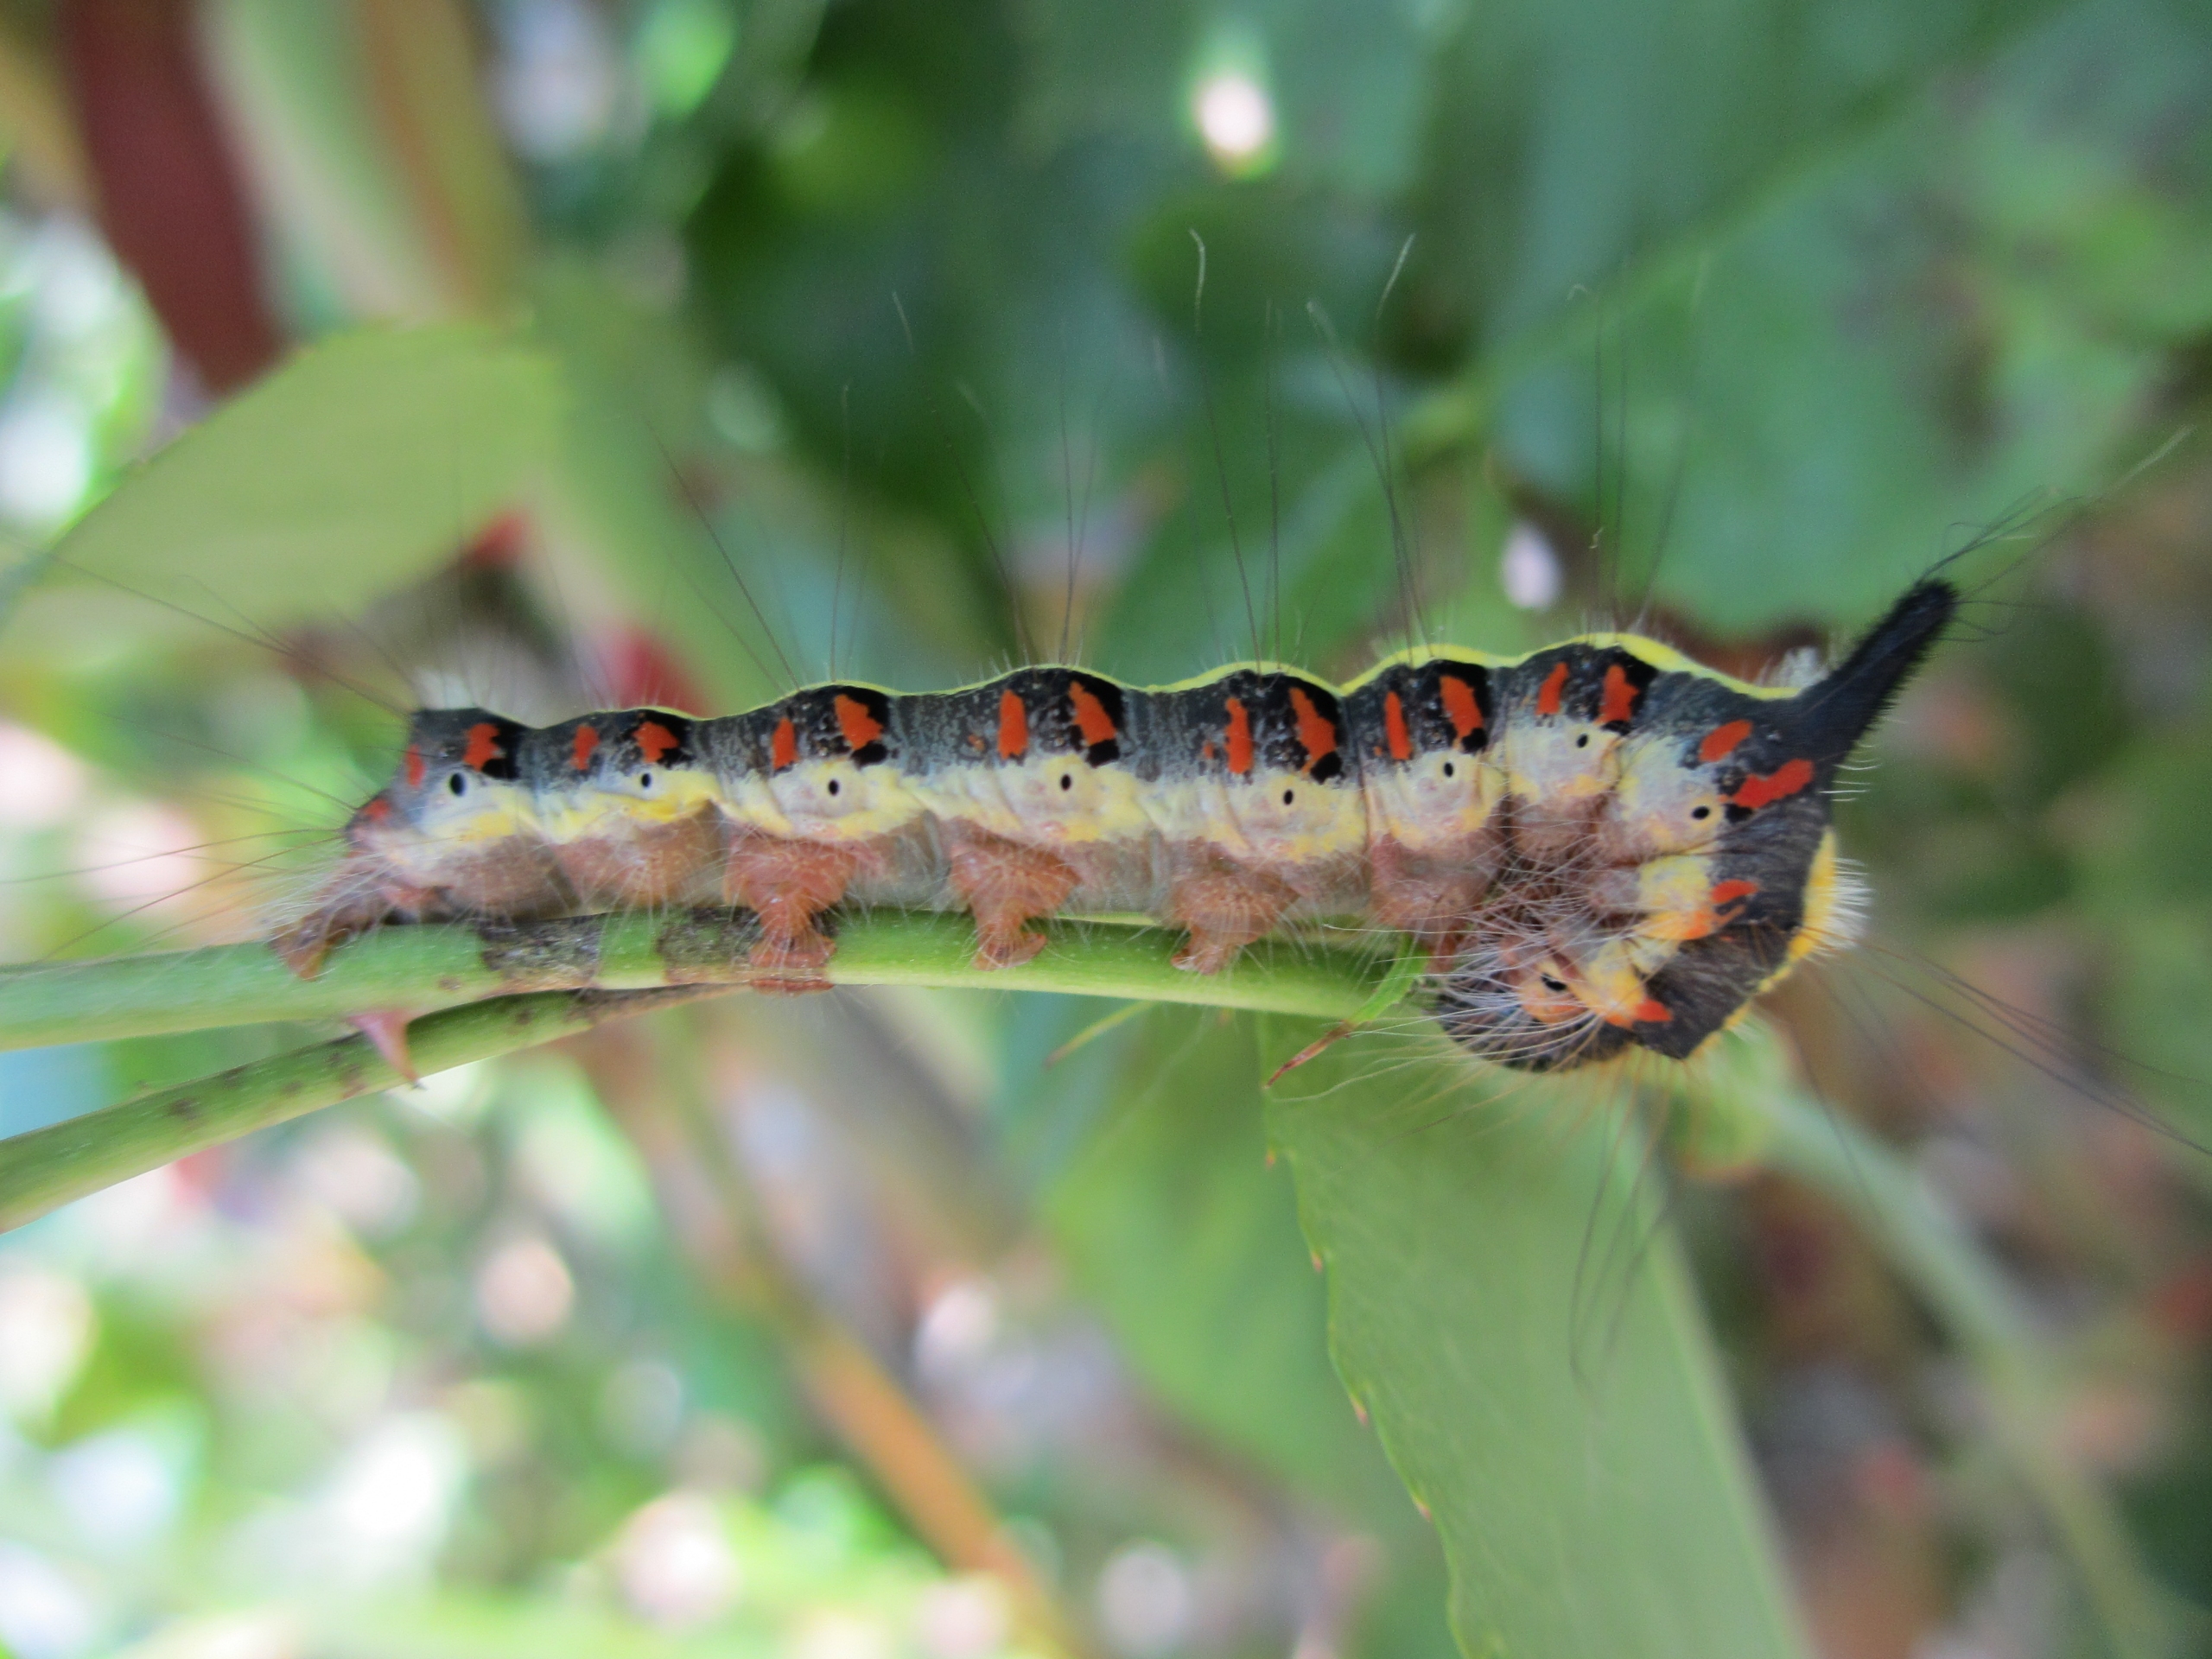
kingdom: Animalia
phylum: Arthropoda
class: Insecta
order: Lepidoptera
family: Noctuidae
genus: Acronicta
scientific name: Acronicta psi
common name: Psi-ugle
